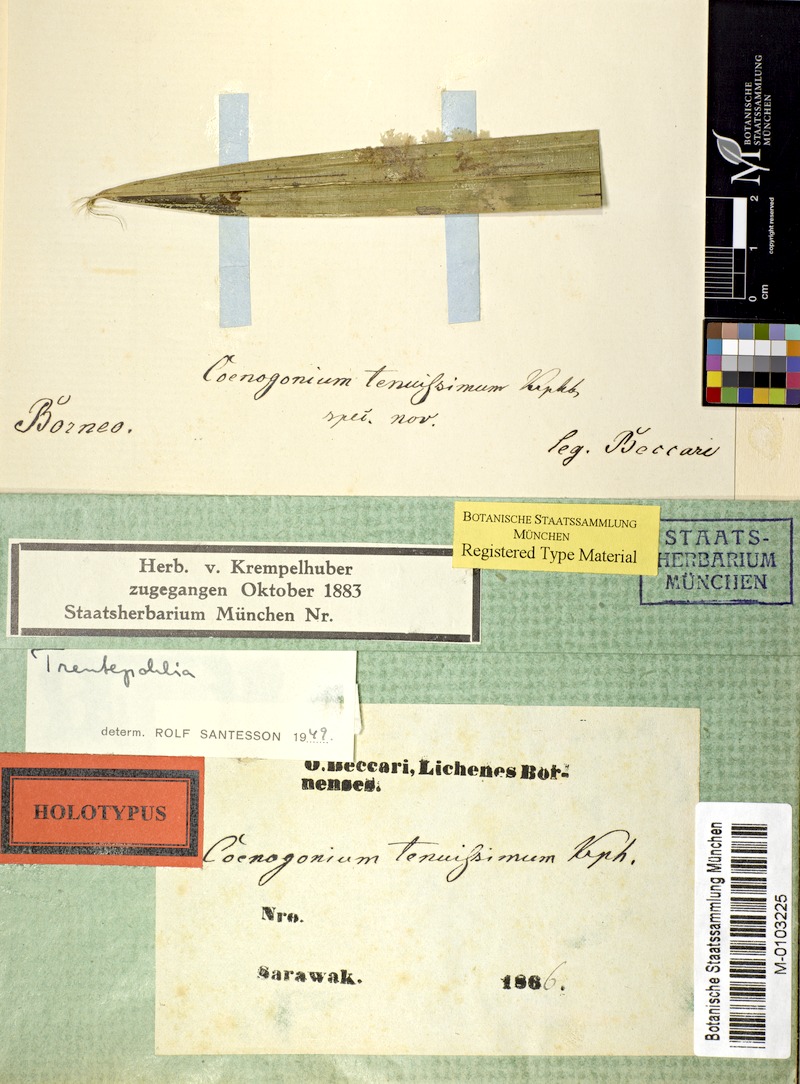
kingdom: Fungi
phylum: Ascomycota
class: Lecanoromycetes
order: Ostropales
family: Coenogoniaceae
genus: Coenogonium
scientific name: Coenogonium
